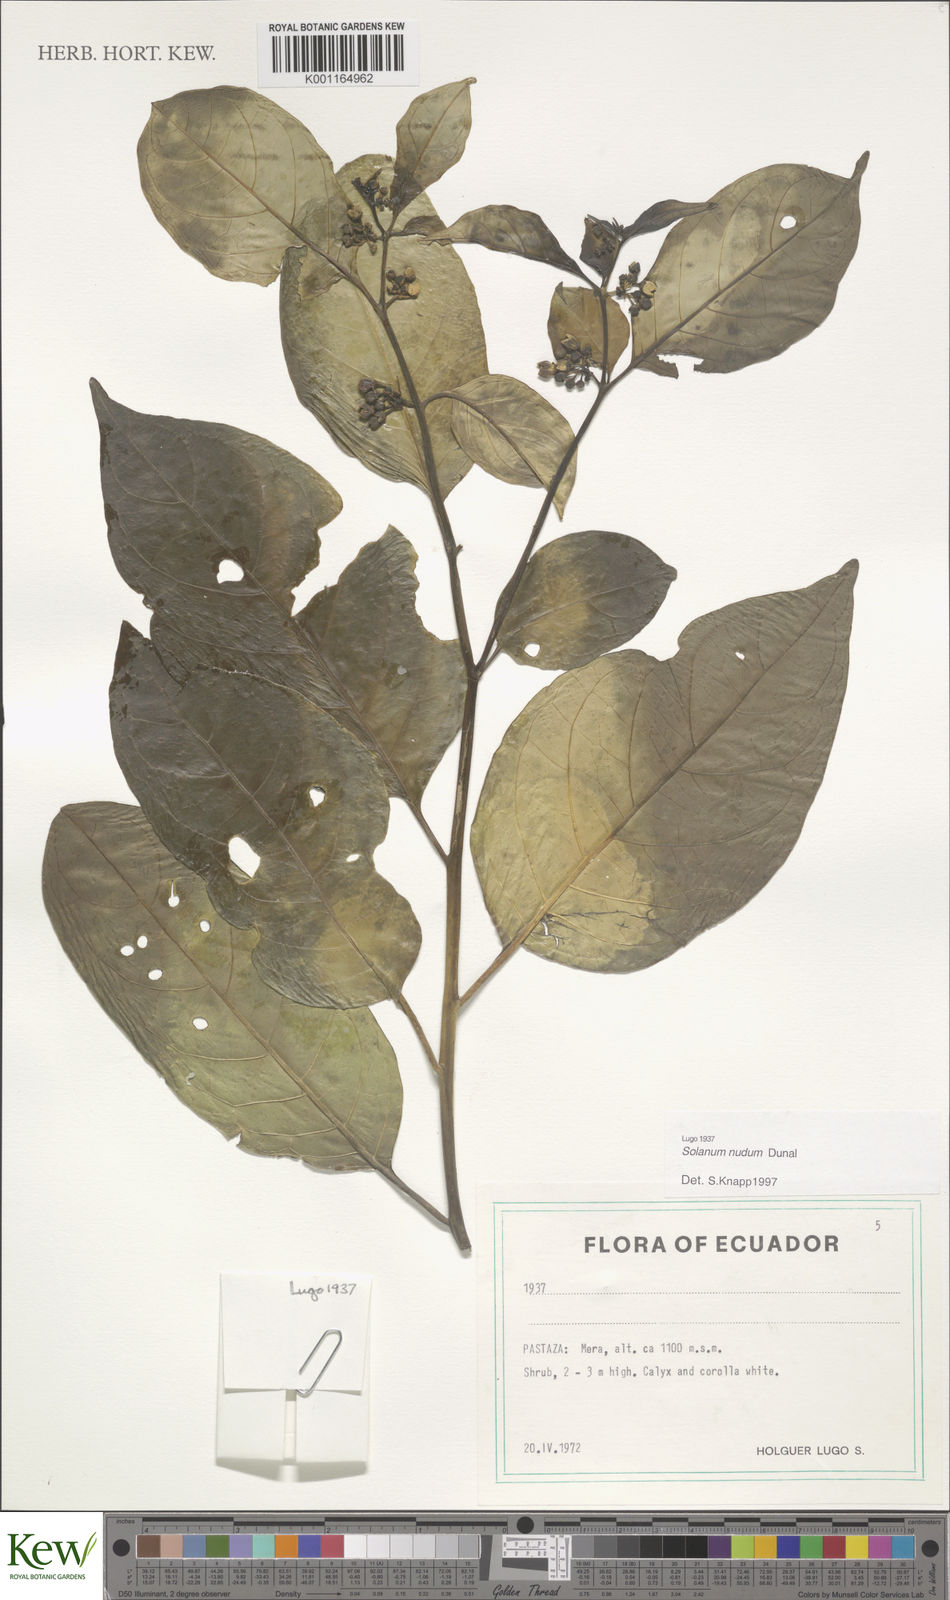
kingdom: Plantae
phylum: Tracheophyta
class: Magnoliopsida
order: Solanales
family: Solanaceae
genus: Solanum
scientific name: Solanum nudum
